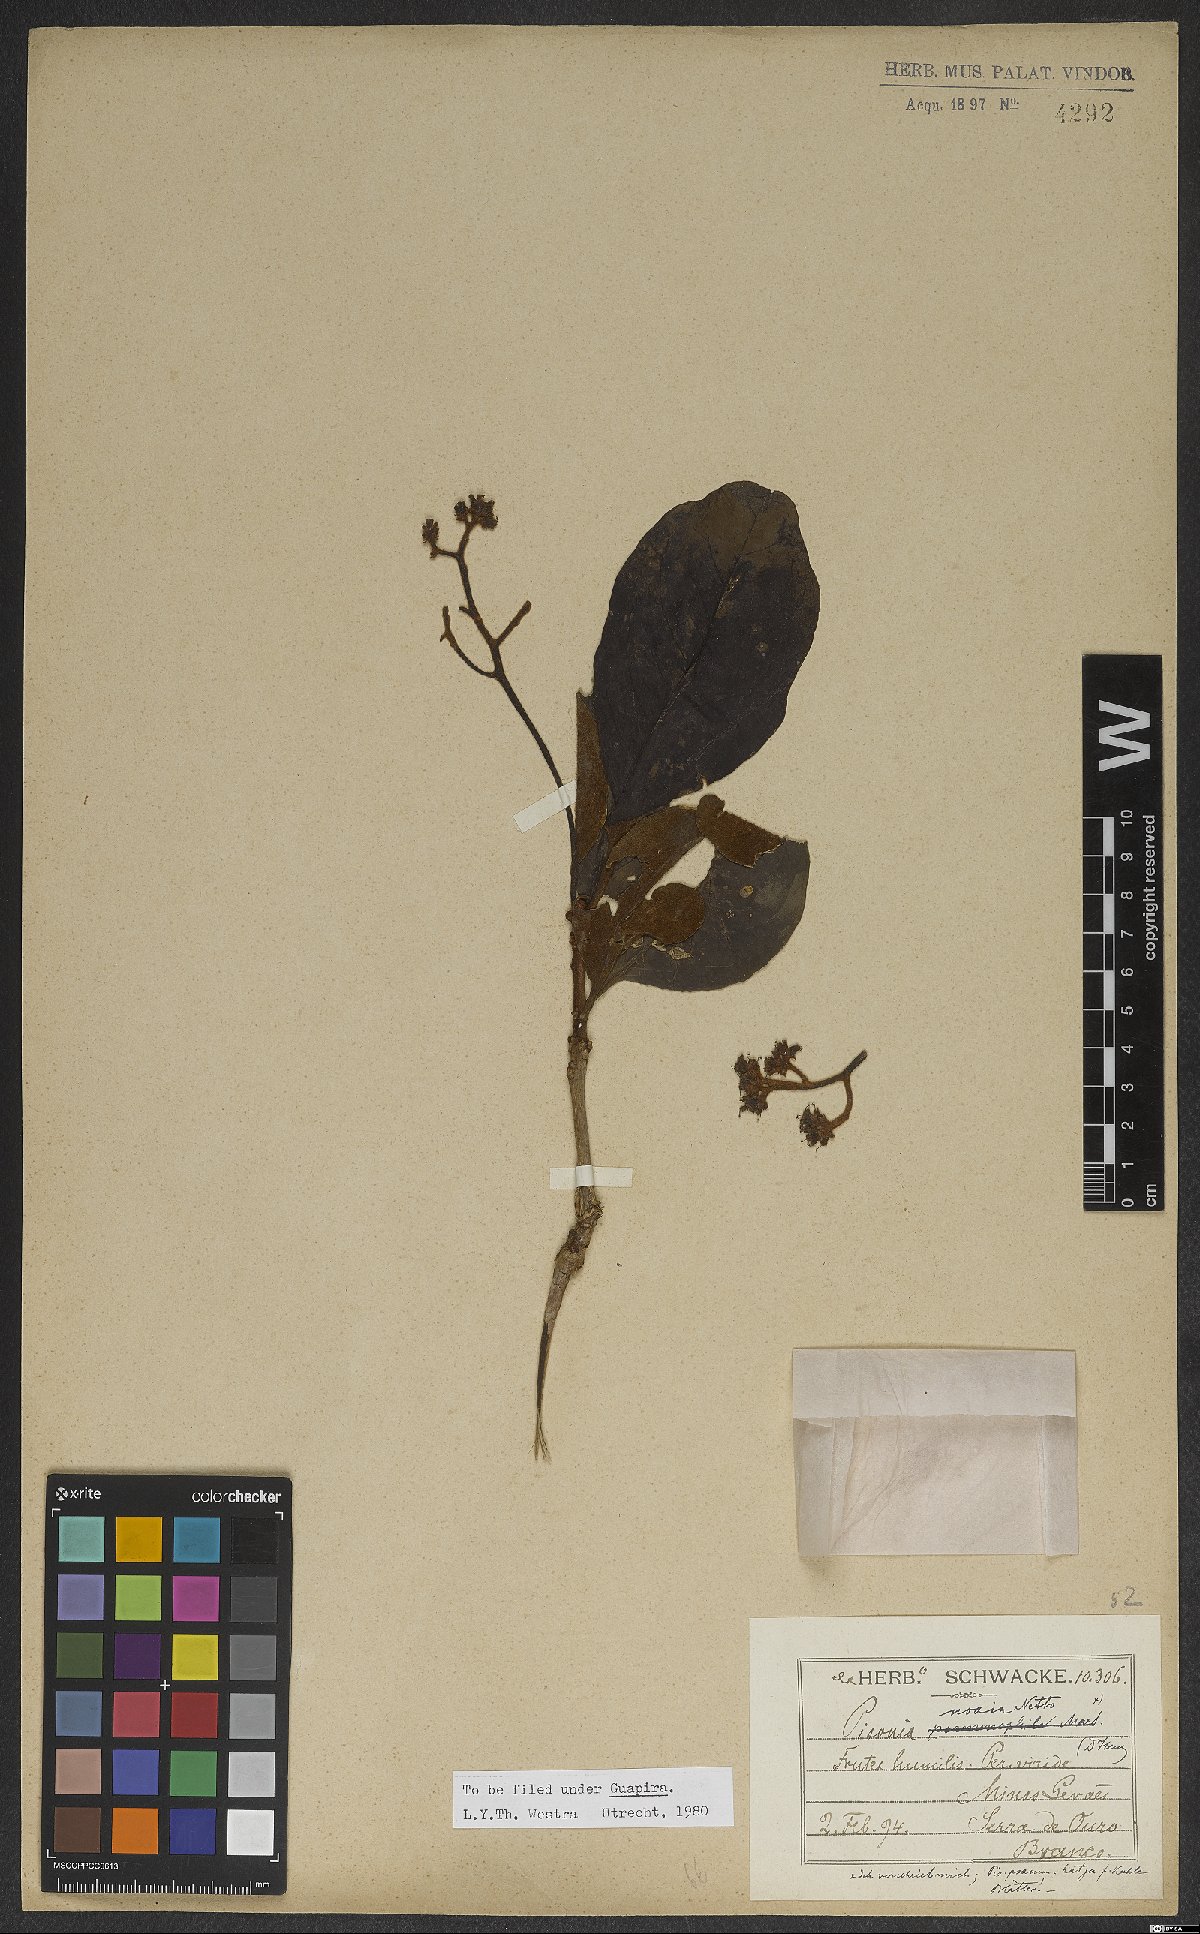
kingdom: Plantae
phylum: Tracheophyta
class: Magnoliopsida
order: Caryophyllales
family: Nyctaginaceae
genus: Guapira
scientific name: Guapira noxia
